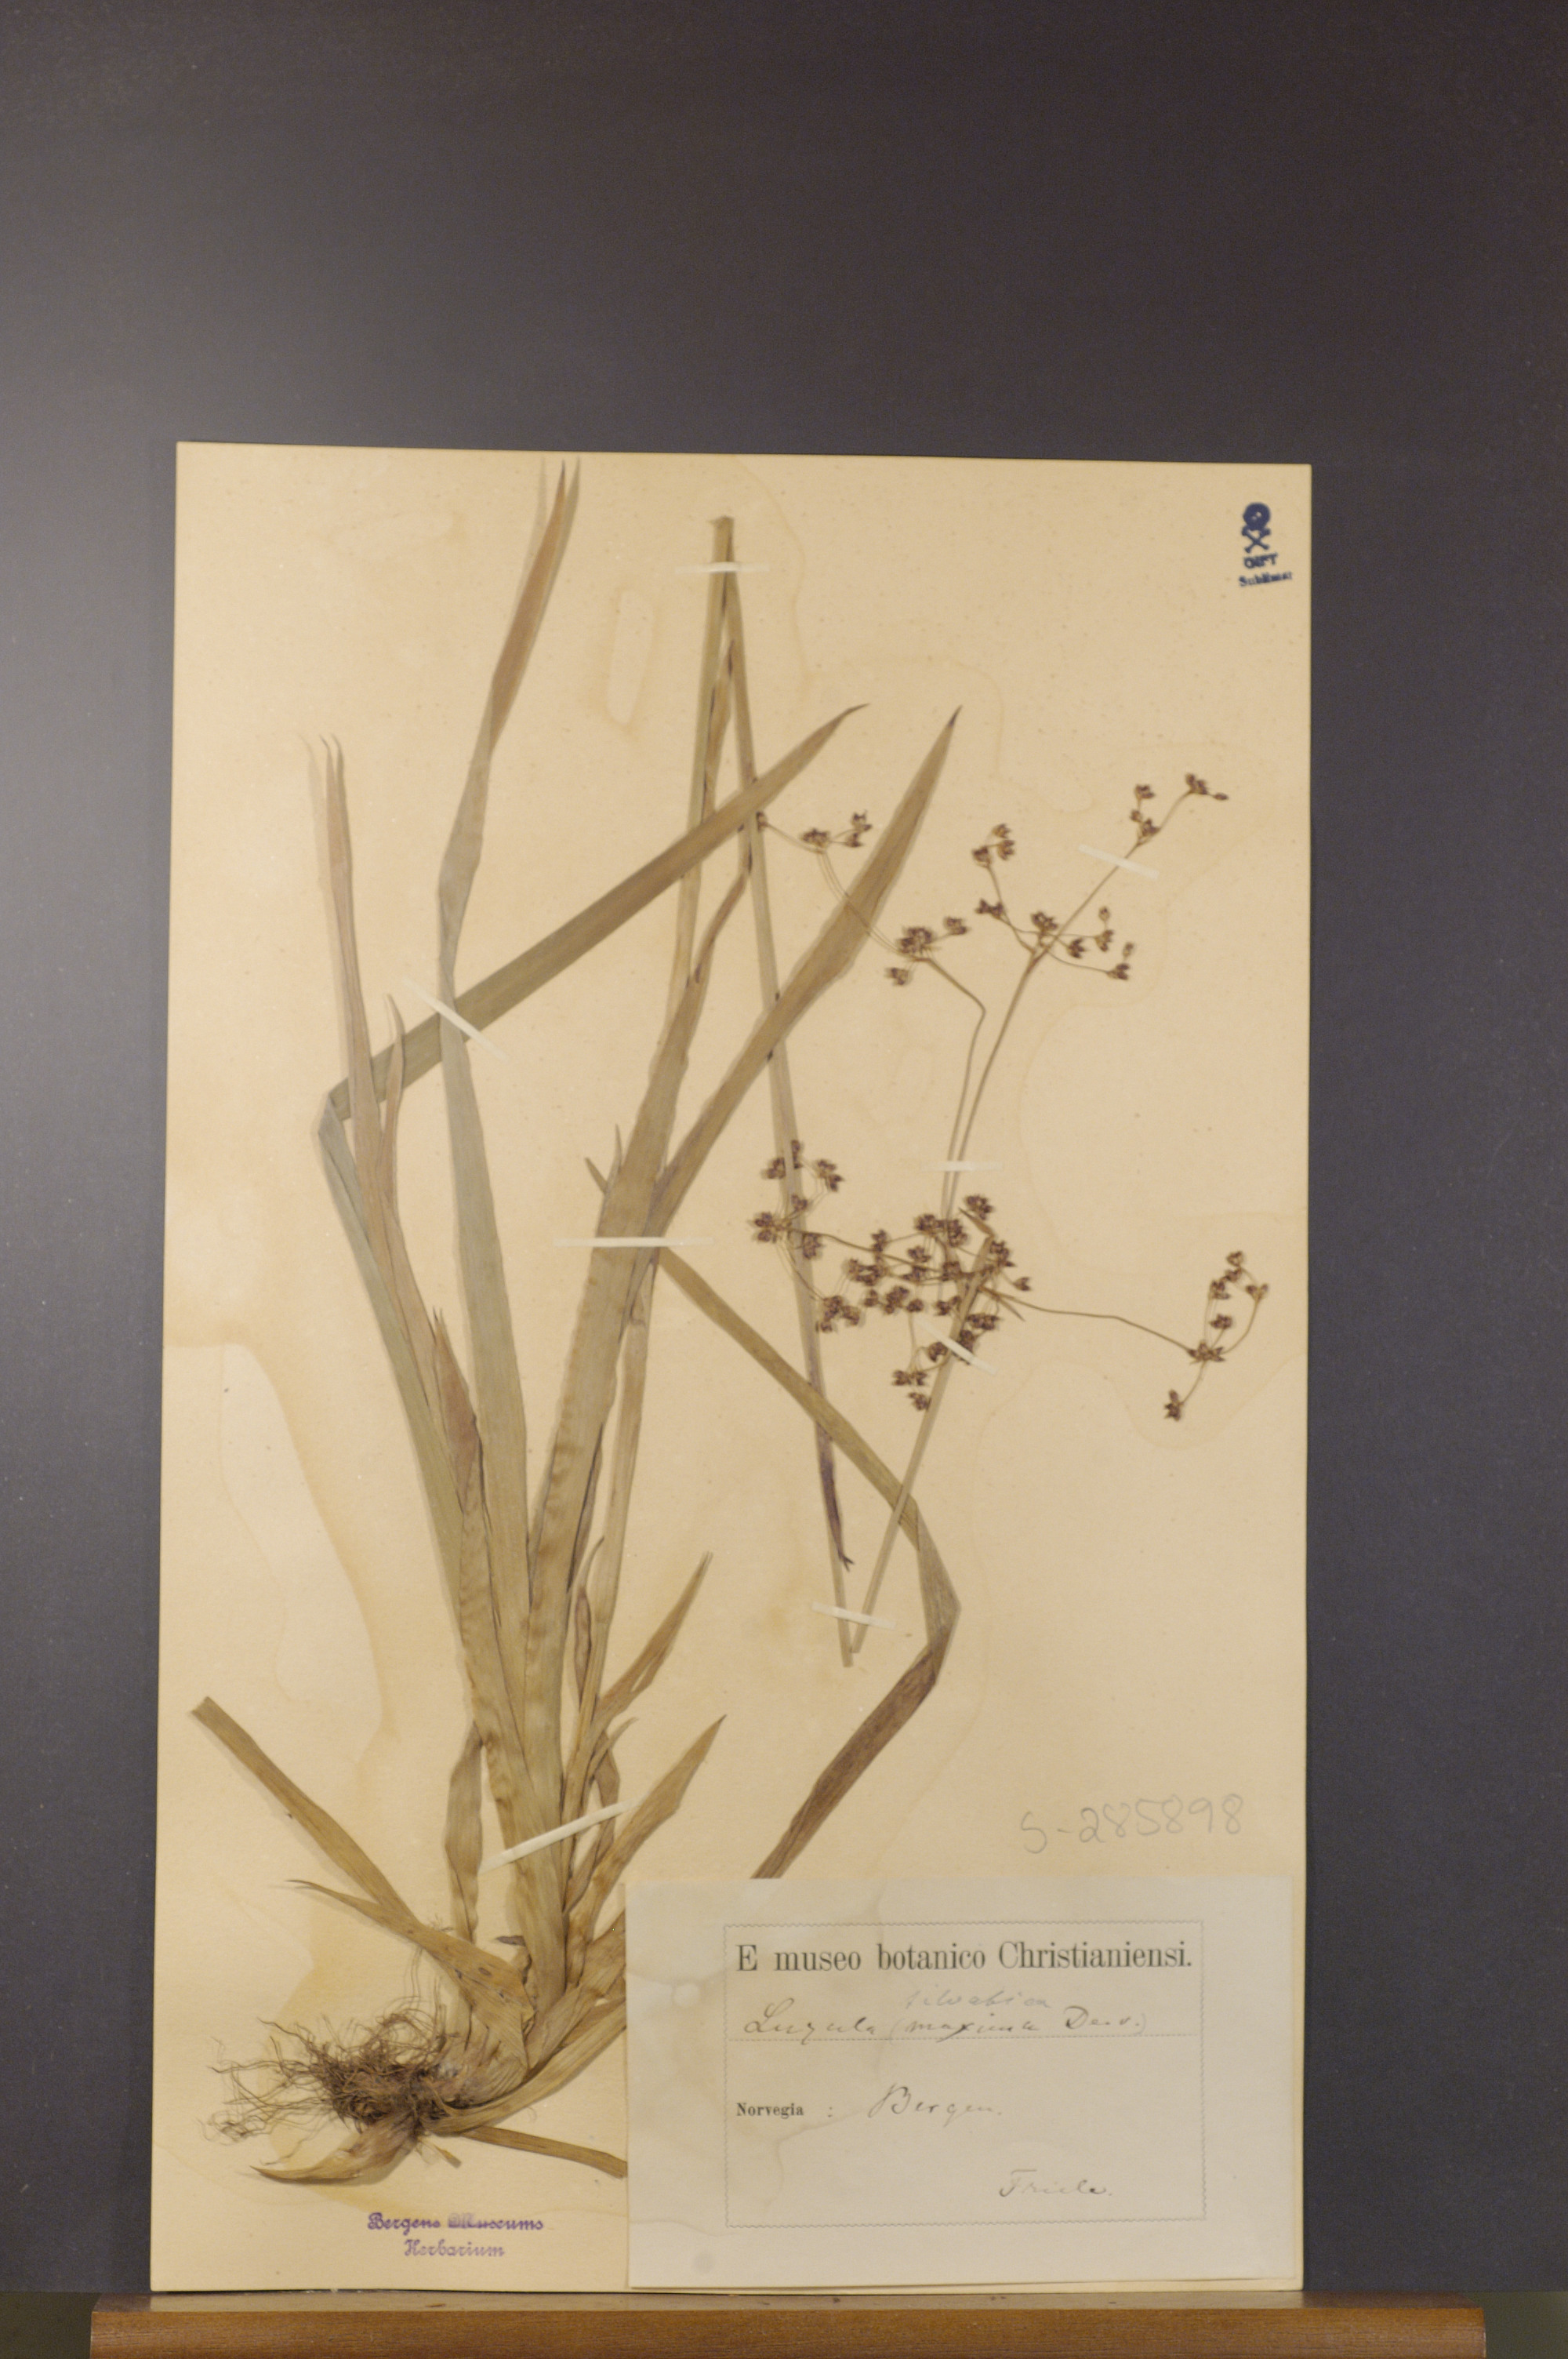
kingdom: Plantae
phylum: Tracheophyta
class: Liliopsida
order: Poales
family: Juncaceae
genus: Luzula
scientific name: Luzula sylvatica
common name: Great wood-rush
